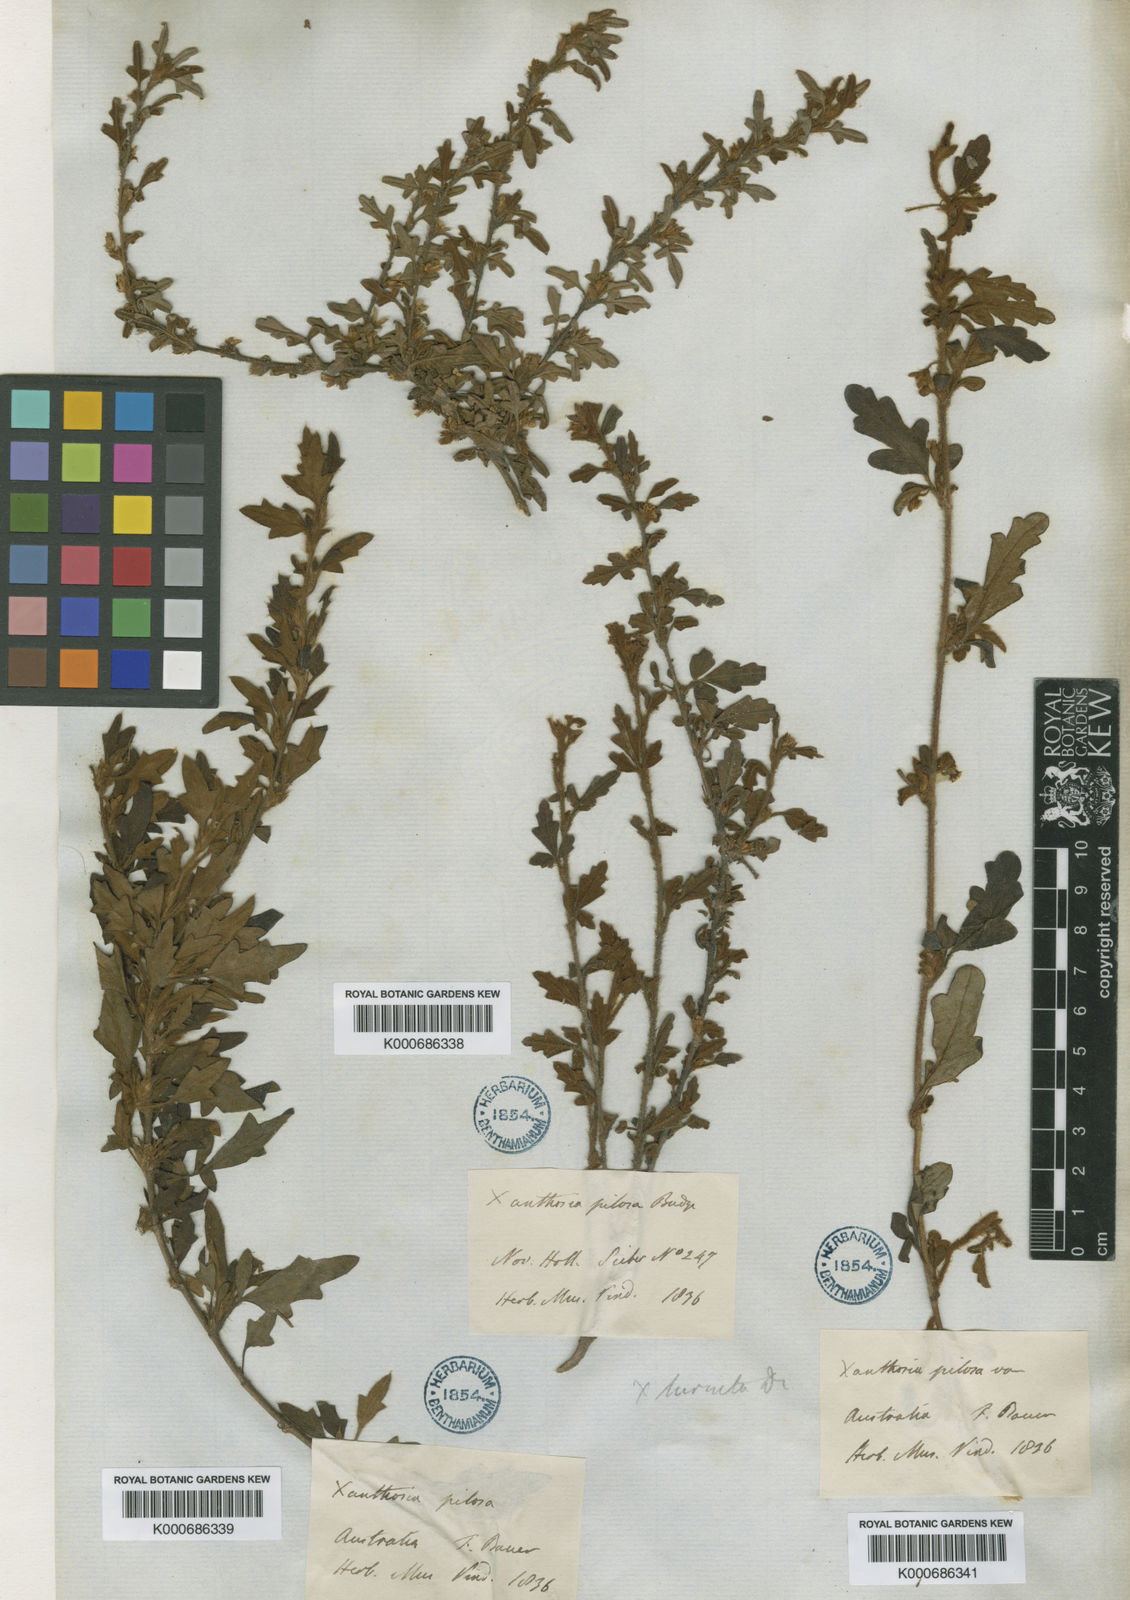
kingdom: Plantae
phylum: Tracheophyta
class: Magnoliopsida
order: Apiales
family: Apiaceae
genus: Xanthosia
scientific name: Xanthosia pilosa
